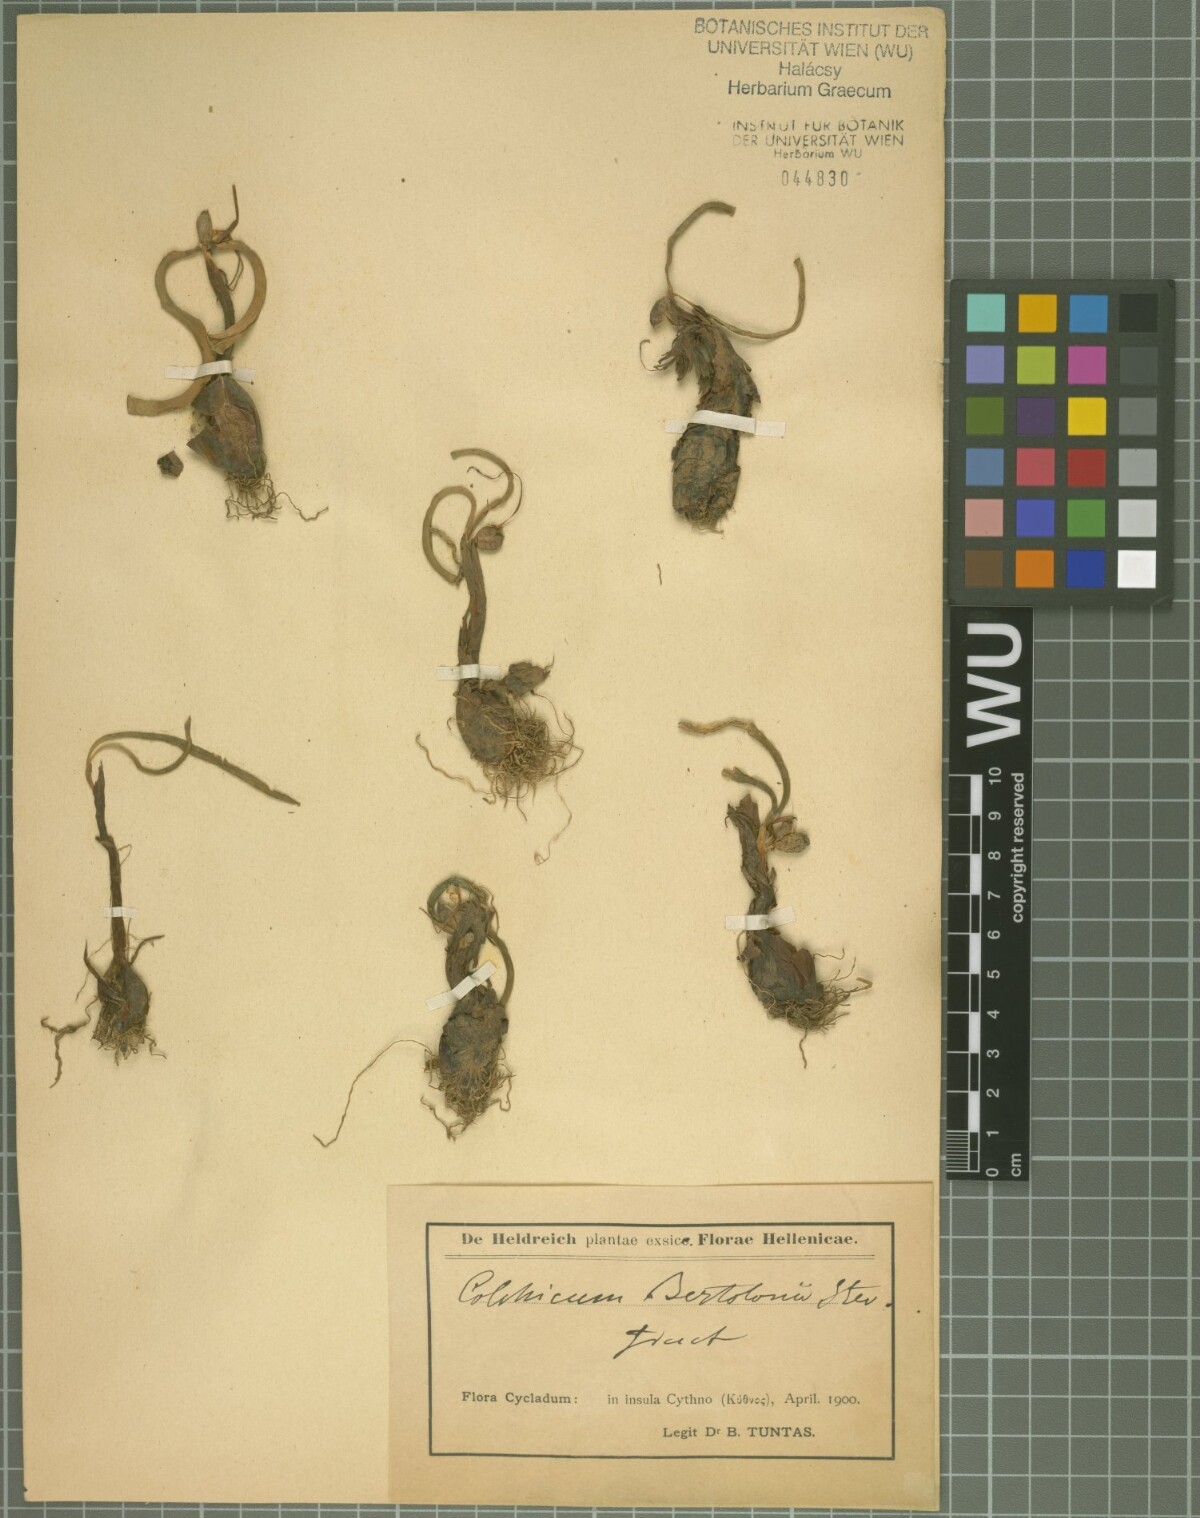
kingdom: Plantae
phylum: Tracheophyta
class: Liliopsida
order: Liliales
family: Colchicaceae
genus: Colchicum
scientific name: Colchicum cupanii
